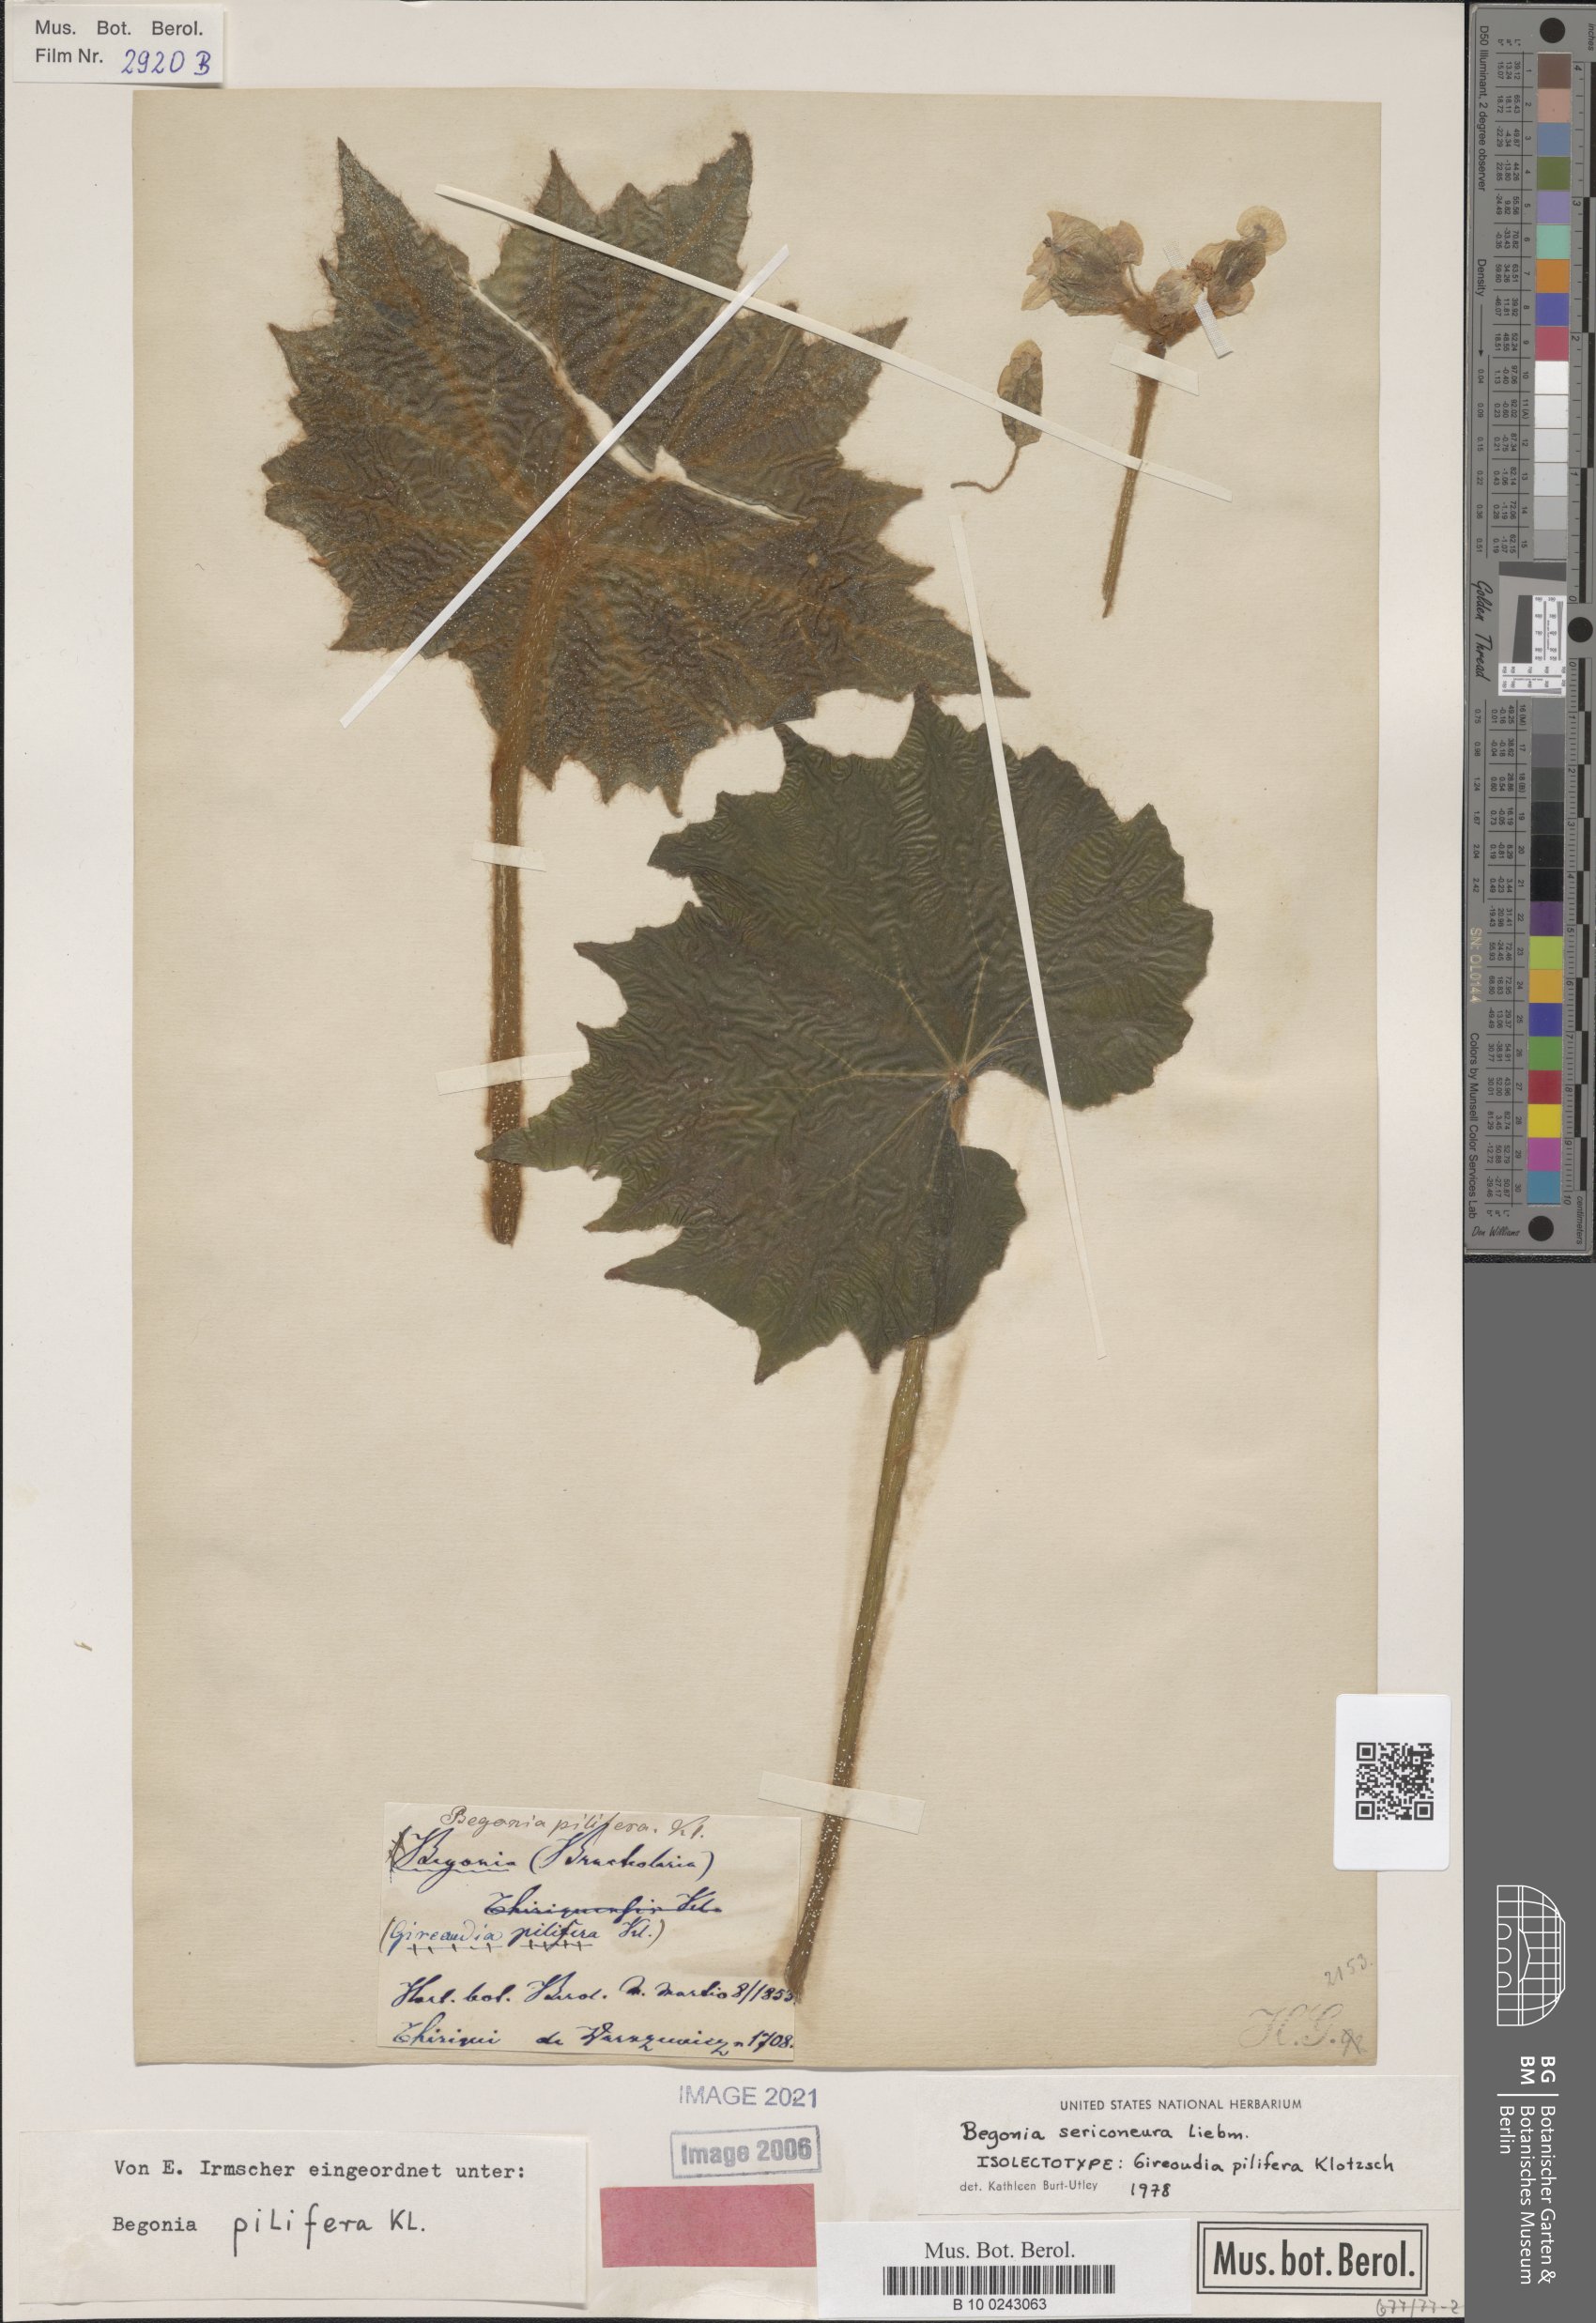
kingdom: Plantae
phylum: Tracheophyta
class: Magnoliopsida
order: Cucurbitales
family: Begoniaceae
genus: Begonia
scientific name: Begonia sericoneura
